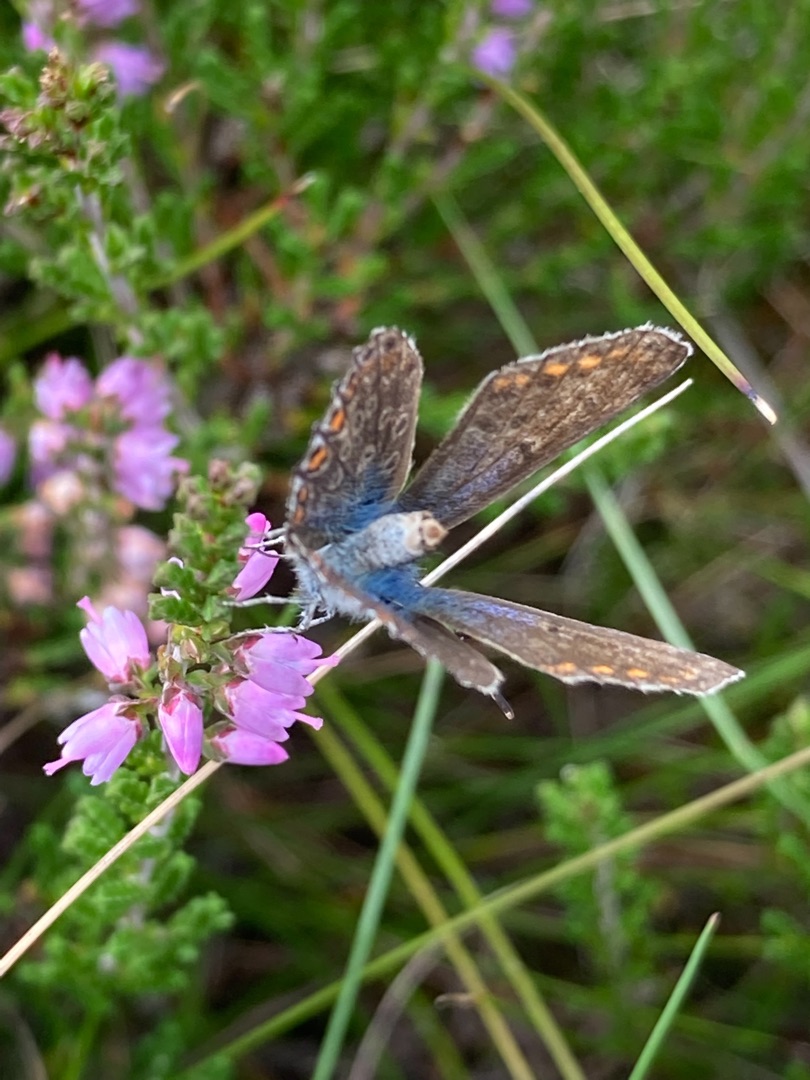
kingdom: Animalia
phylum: Arthropoda
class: Insecta
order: Lepidoptera
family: Lycaenidae
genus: Polyommatus
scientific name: Polyommatus icarus
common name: Almindelig blåfugl
